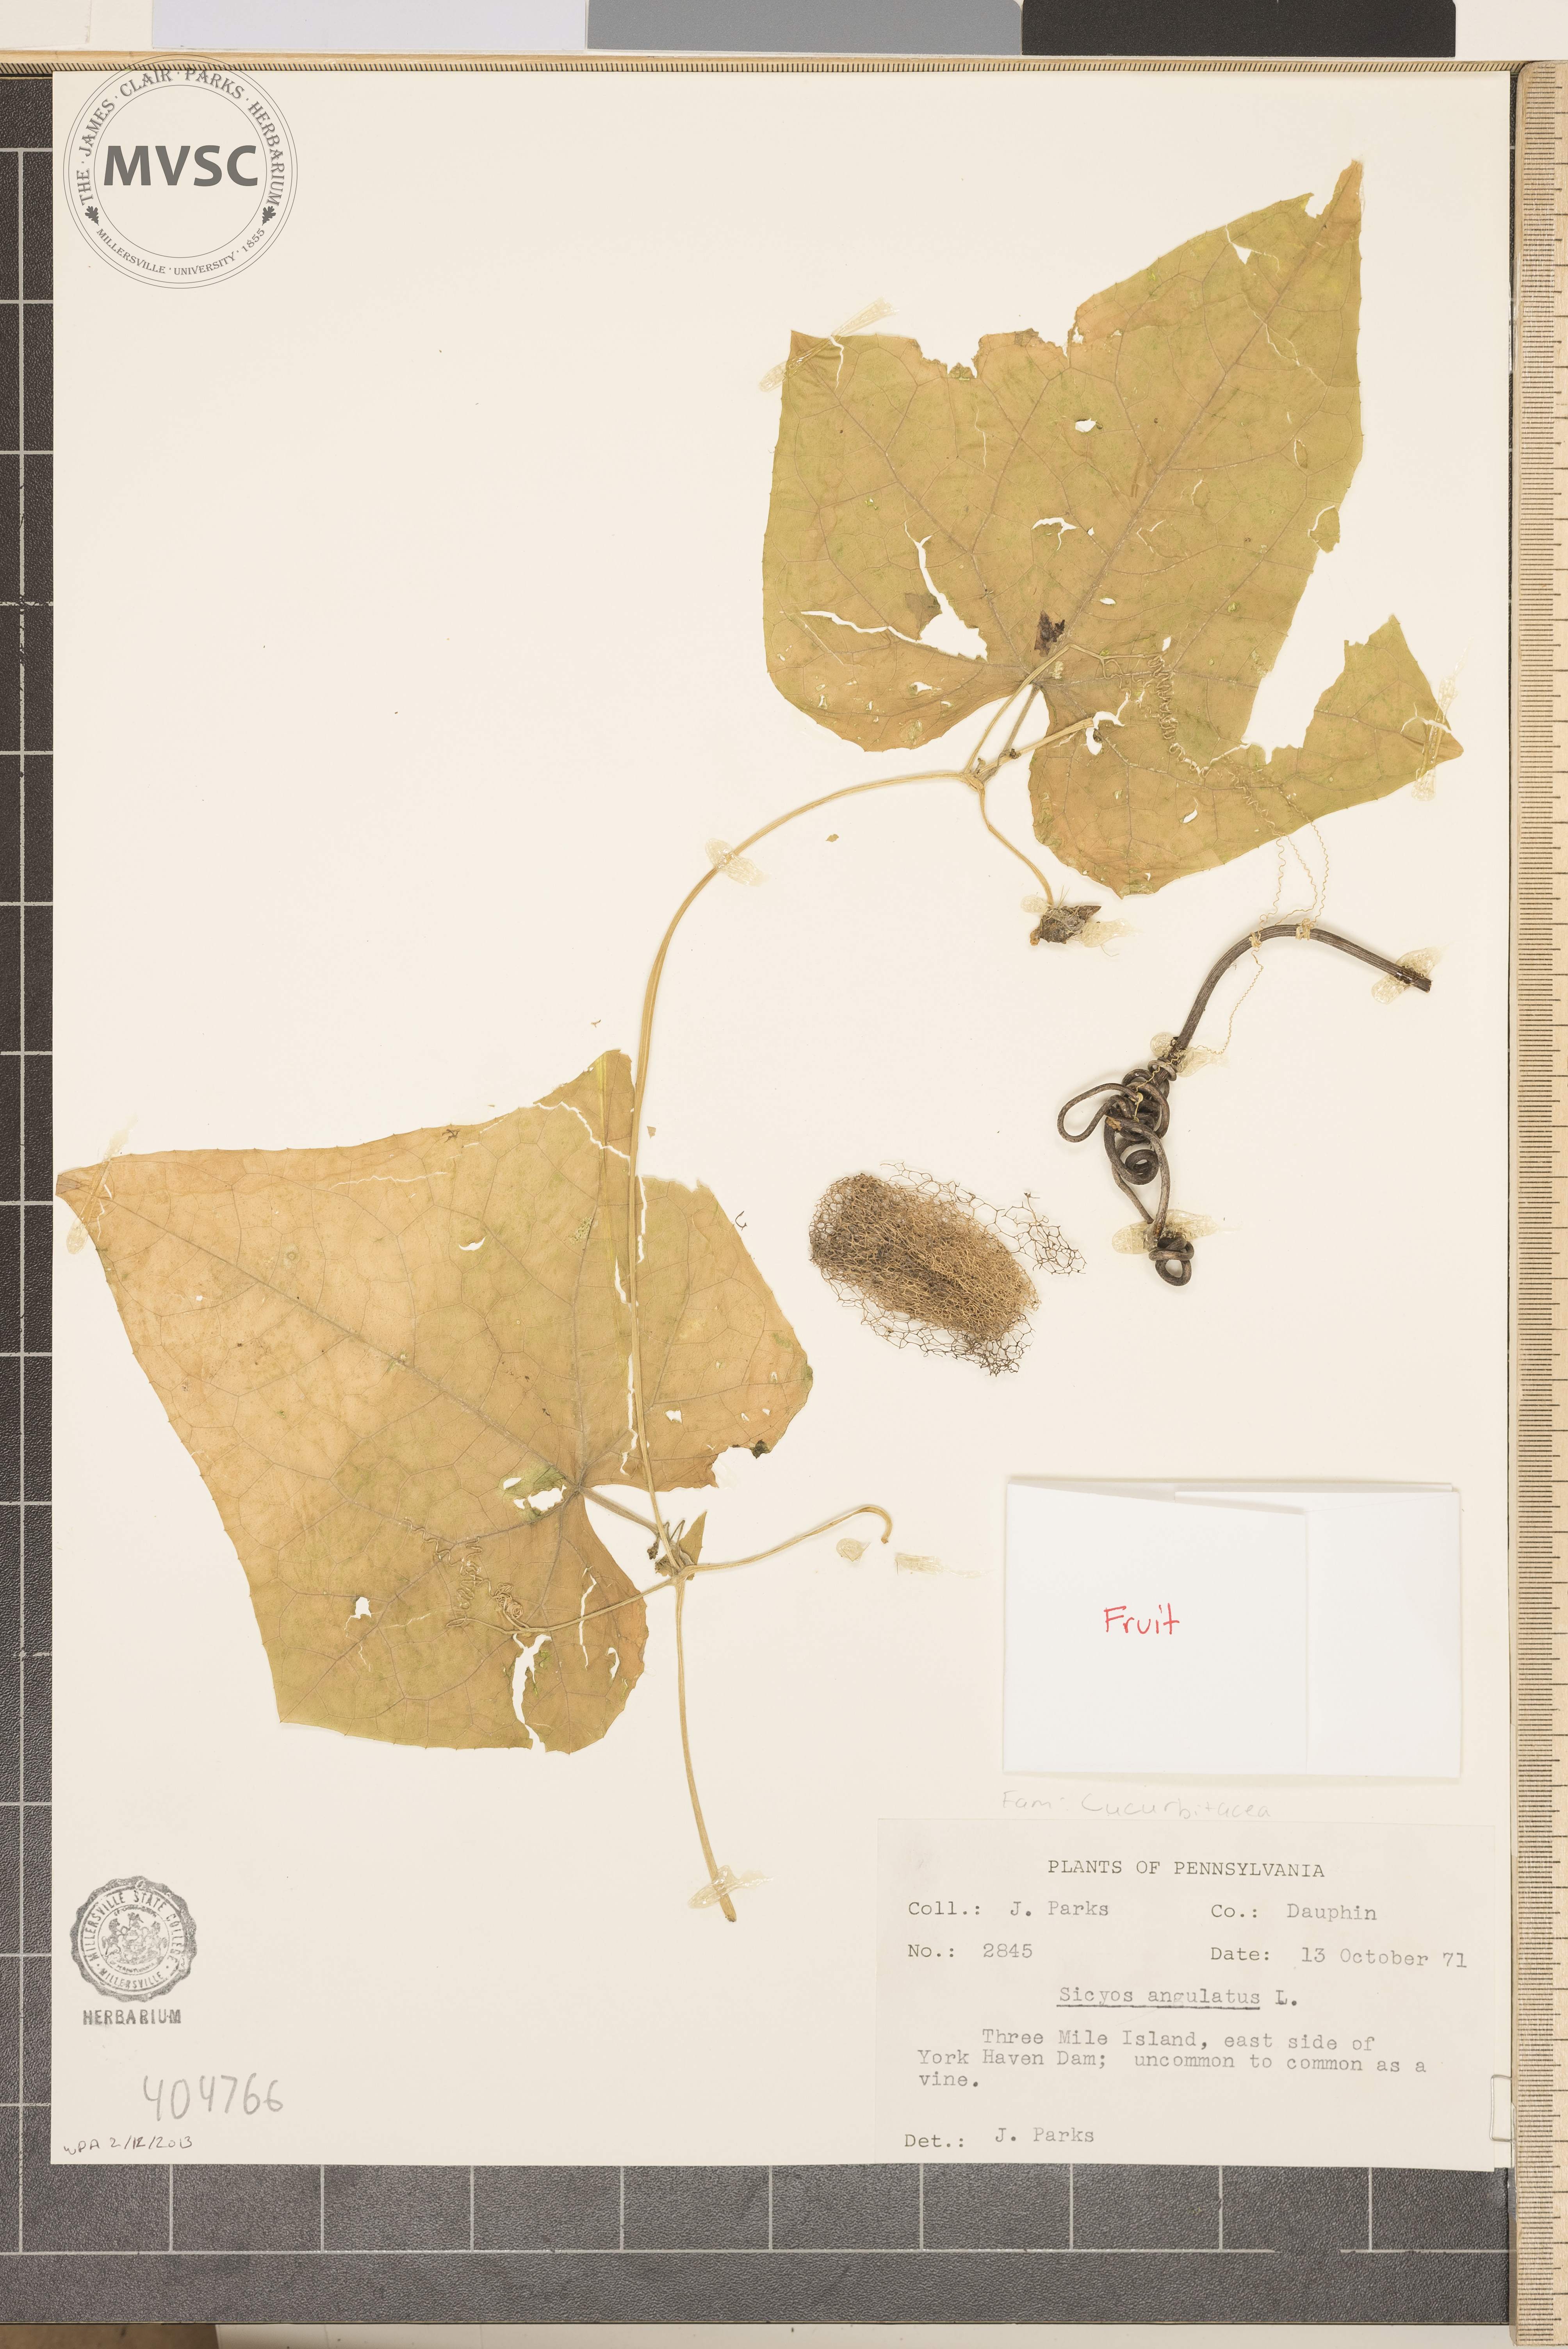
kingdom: Plantae
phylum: Tracheophyta
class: Magnoliopsida
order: Cucurbitales
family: Cucurbitaceae
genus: Sicyos
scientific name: Sicyos angulatus
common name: Angled burr cucumber
